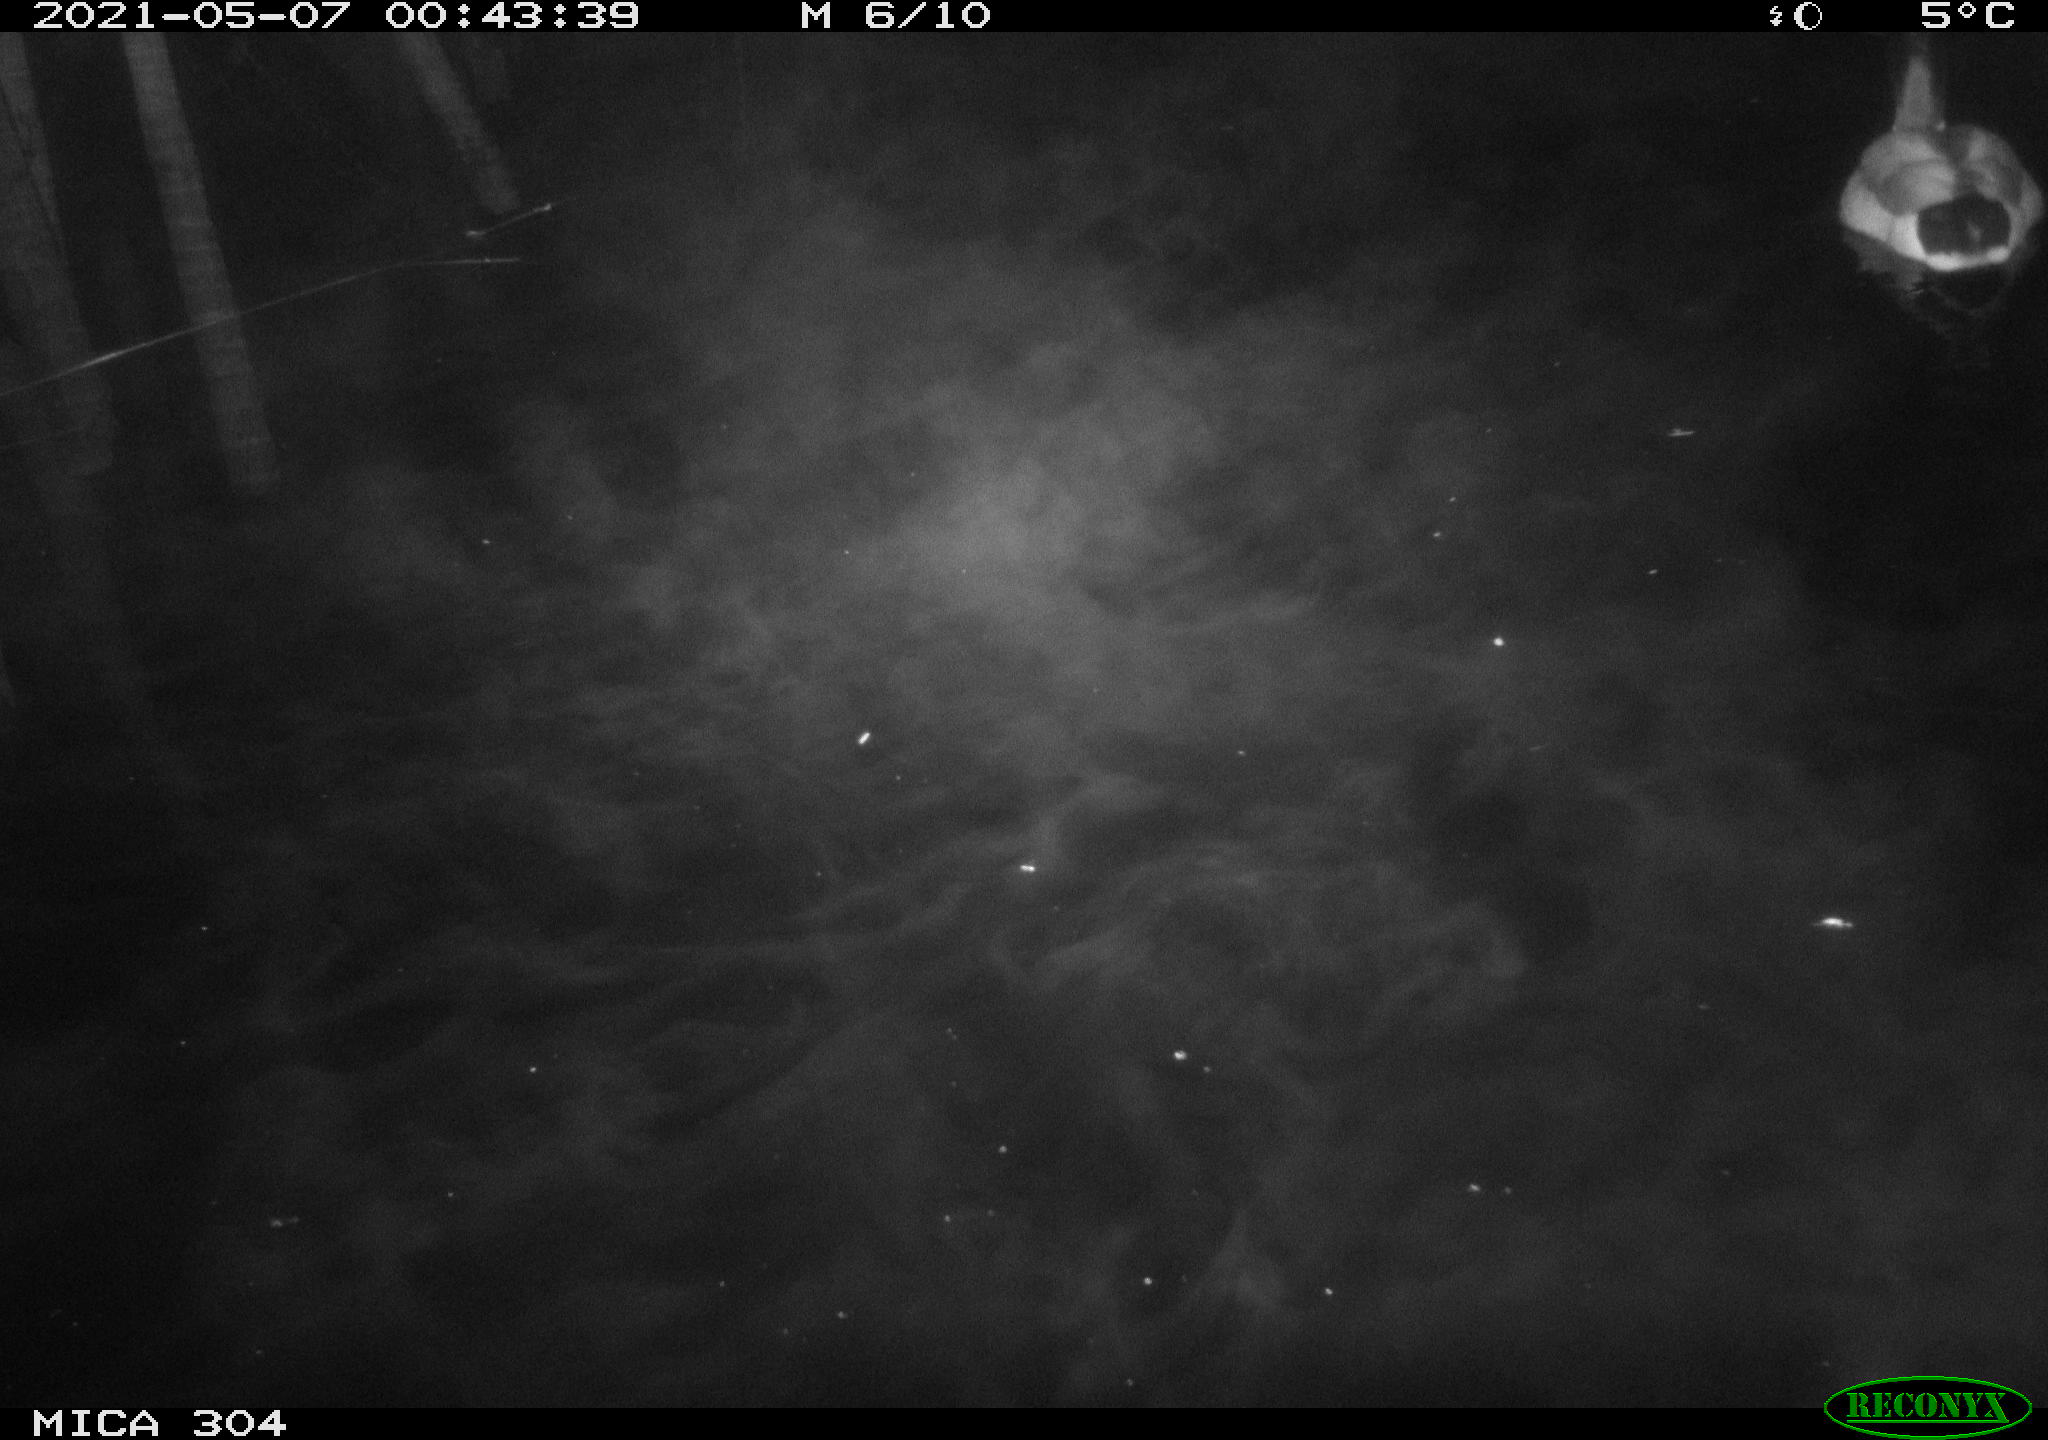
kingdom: Animalia
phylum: Chordata
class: Aves
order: Anseriformes
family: Anatidae
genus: Anas
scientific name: Anas platyrhynchos
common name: Mallard
